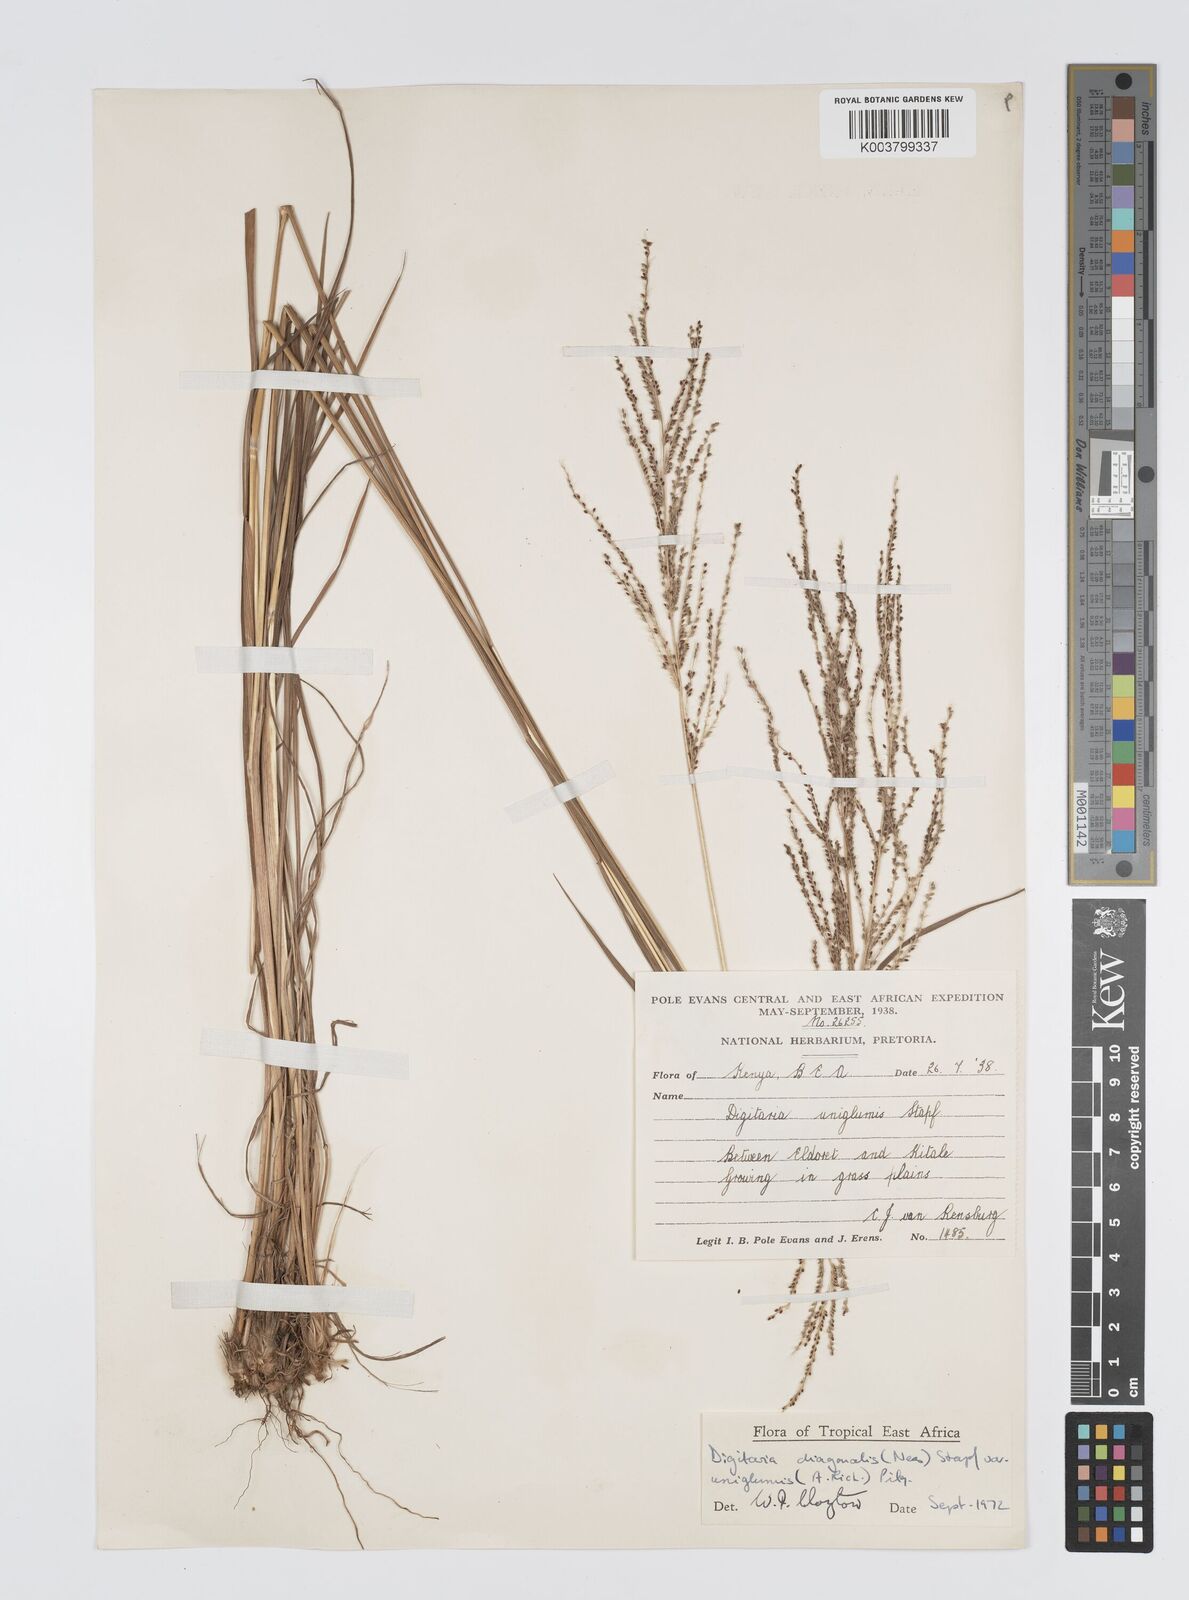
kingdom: Plantae
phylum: Tracheophyta
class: Liliopsida
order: Poales
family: Poaceae
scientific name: Poaceae
